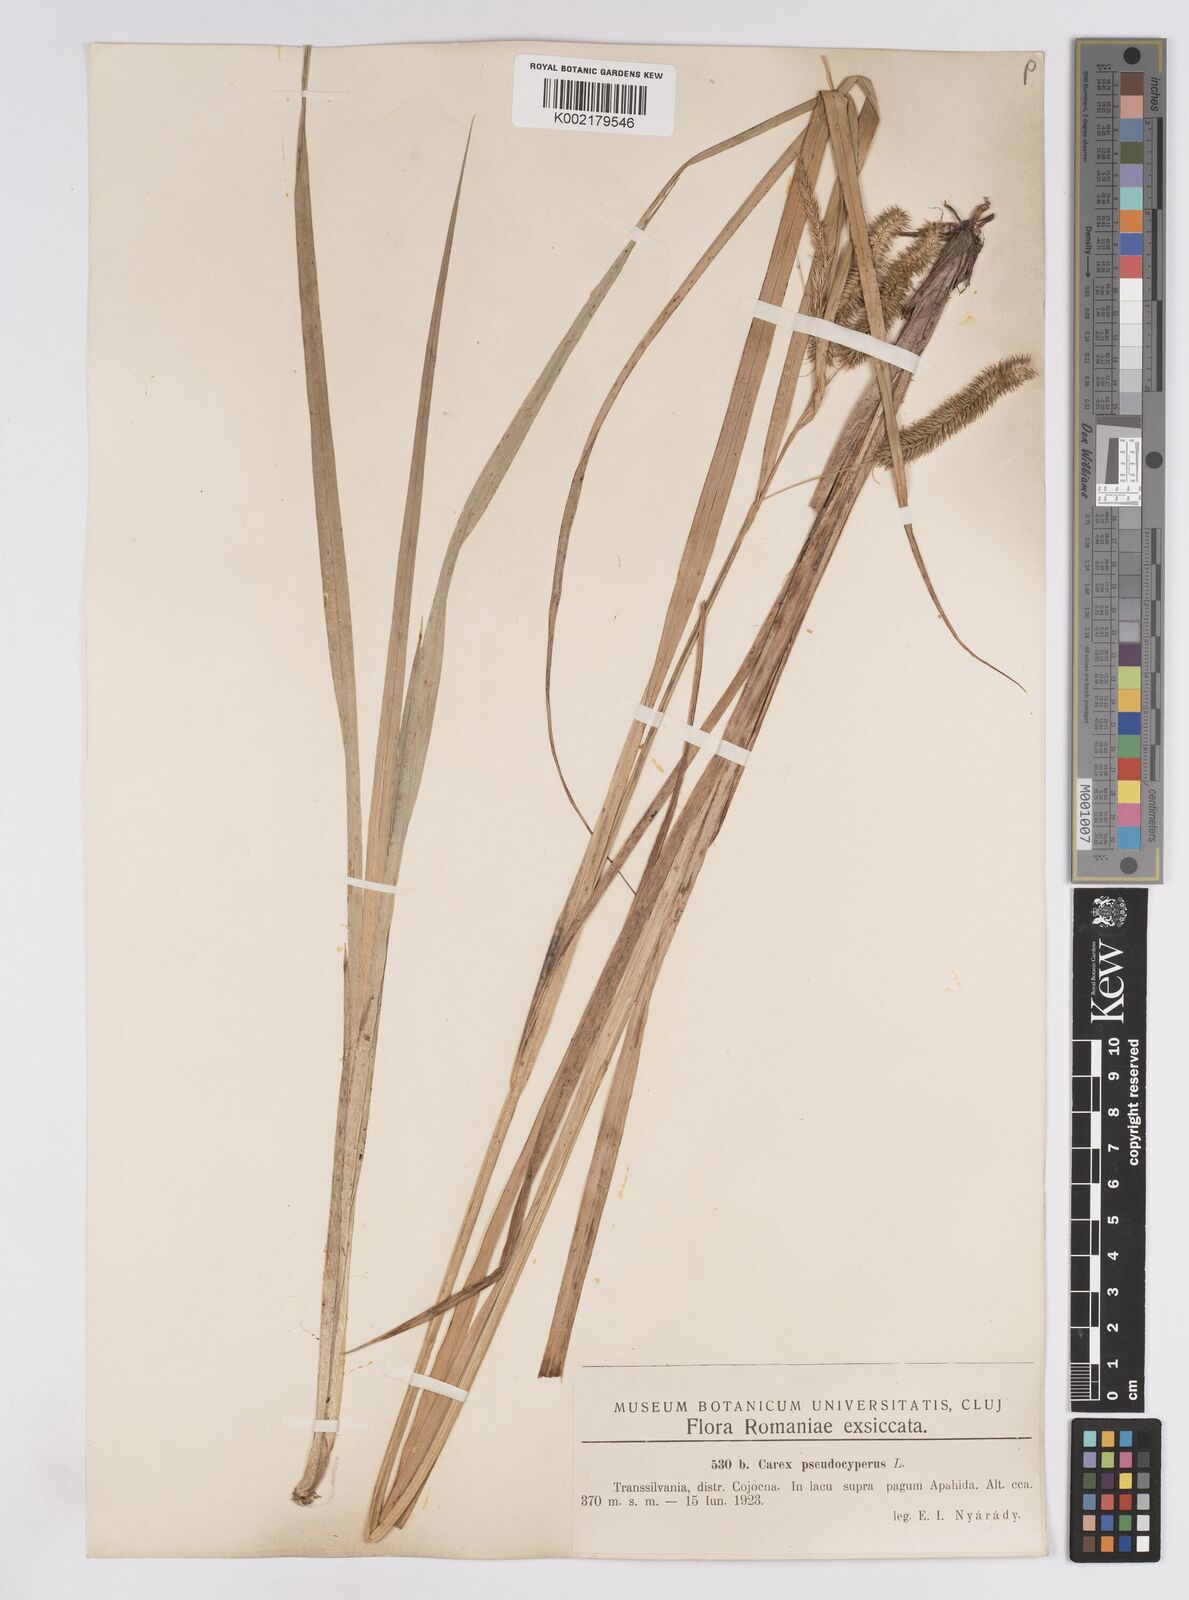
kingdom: Plantae
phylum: Tracheophyta
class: Liliopsida
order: Poales
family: Cyperaceae
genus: Carex
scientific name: Carex pseudocyperus
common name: Cyperus sedge
